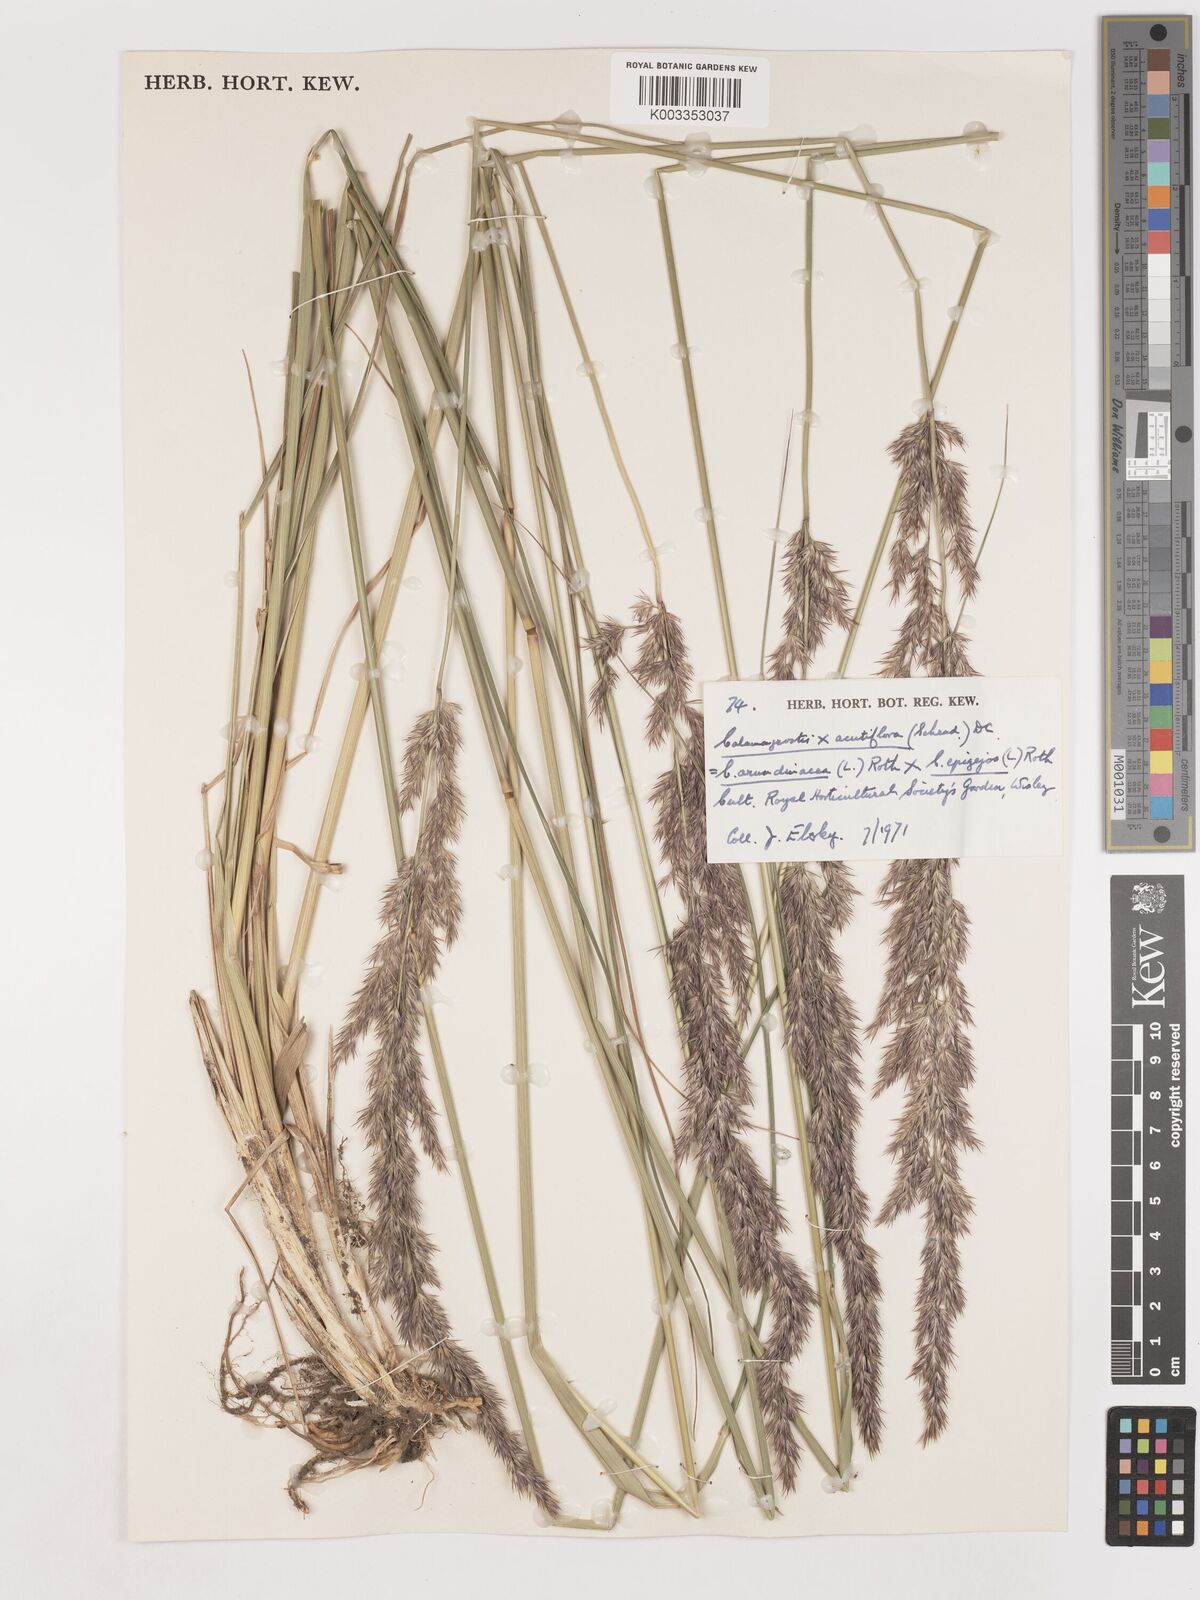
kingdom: Plantae
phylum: Tracheophyta
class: Liliopsida
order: Poales
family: Poaceae
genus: Calamagrostis
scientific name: Calamagrostis epigejos
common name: Wood small-reed
